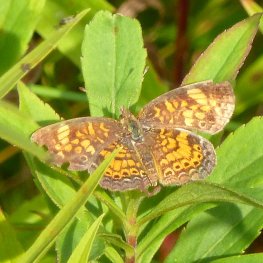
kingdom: Animalia
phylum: Arthropoda
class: Insecta
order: Lepidoptera
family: Nymphalidae
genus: Phyciodes
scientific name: Phyciodes tharos
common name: Pearl Crescent
